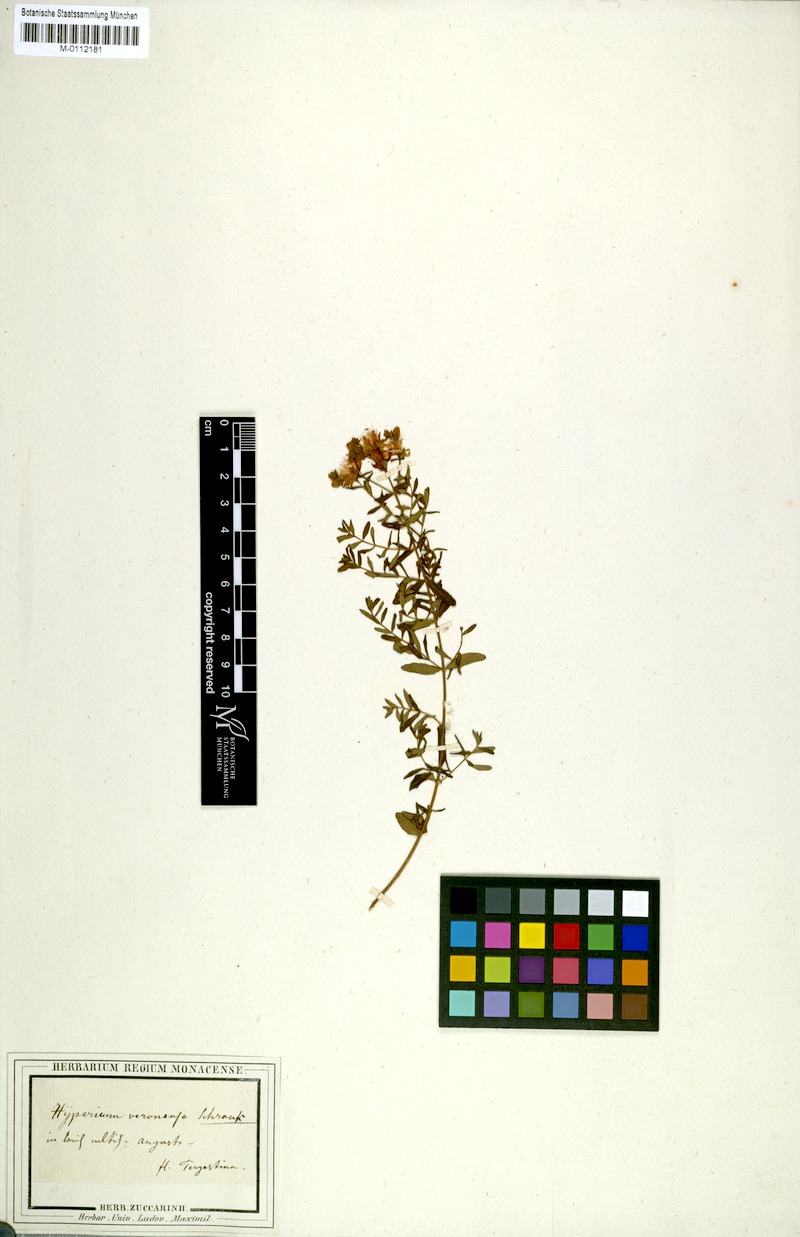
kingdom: Plantae
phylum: Tracheophyta
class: Magnoliopsida
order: Malpighiales
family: Hypericaceae
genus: Hypericum
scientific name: Hypericum perforatum
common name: Common st. johnswort
